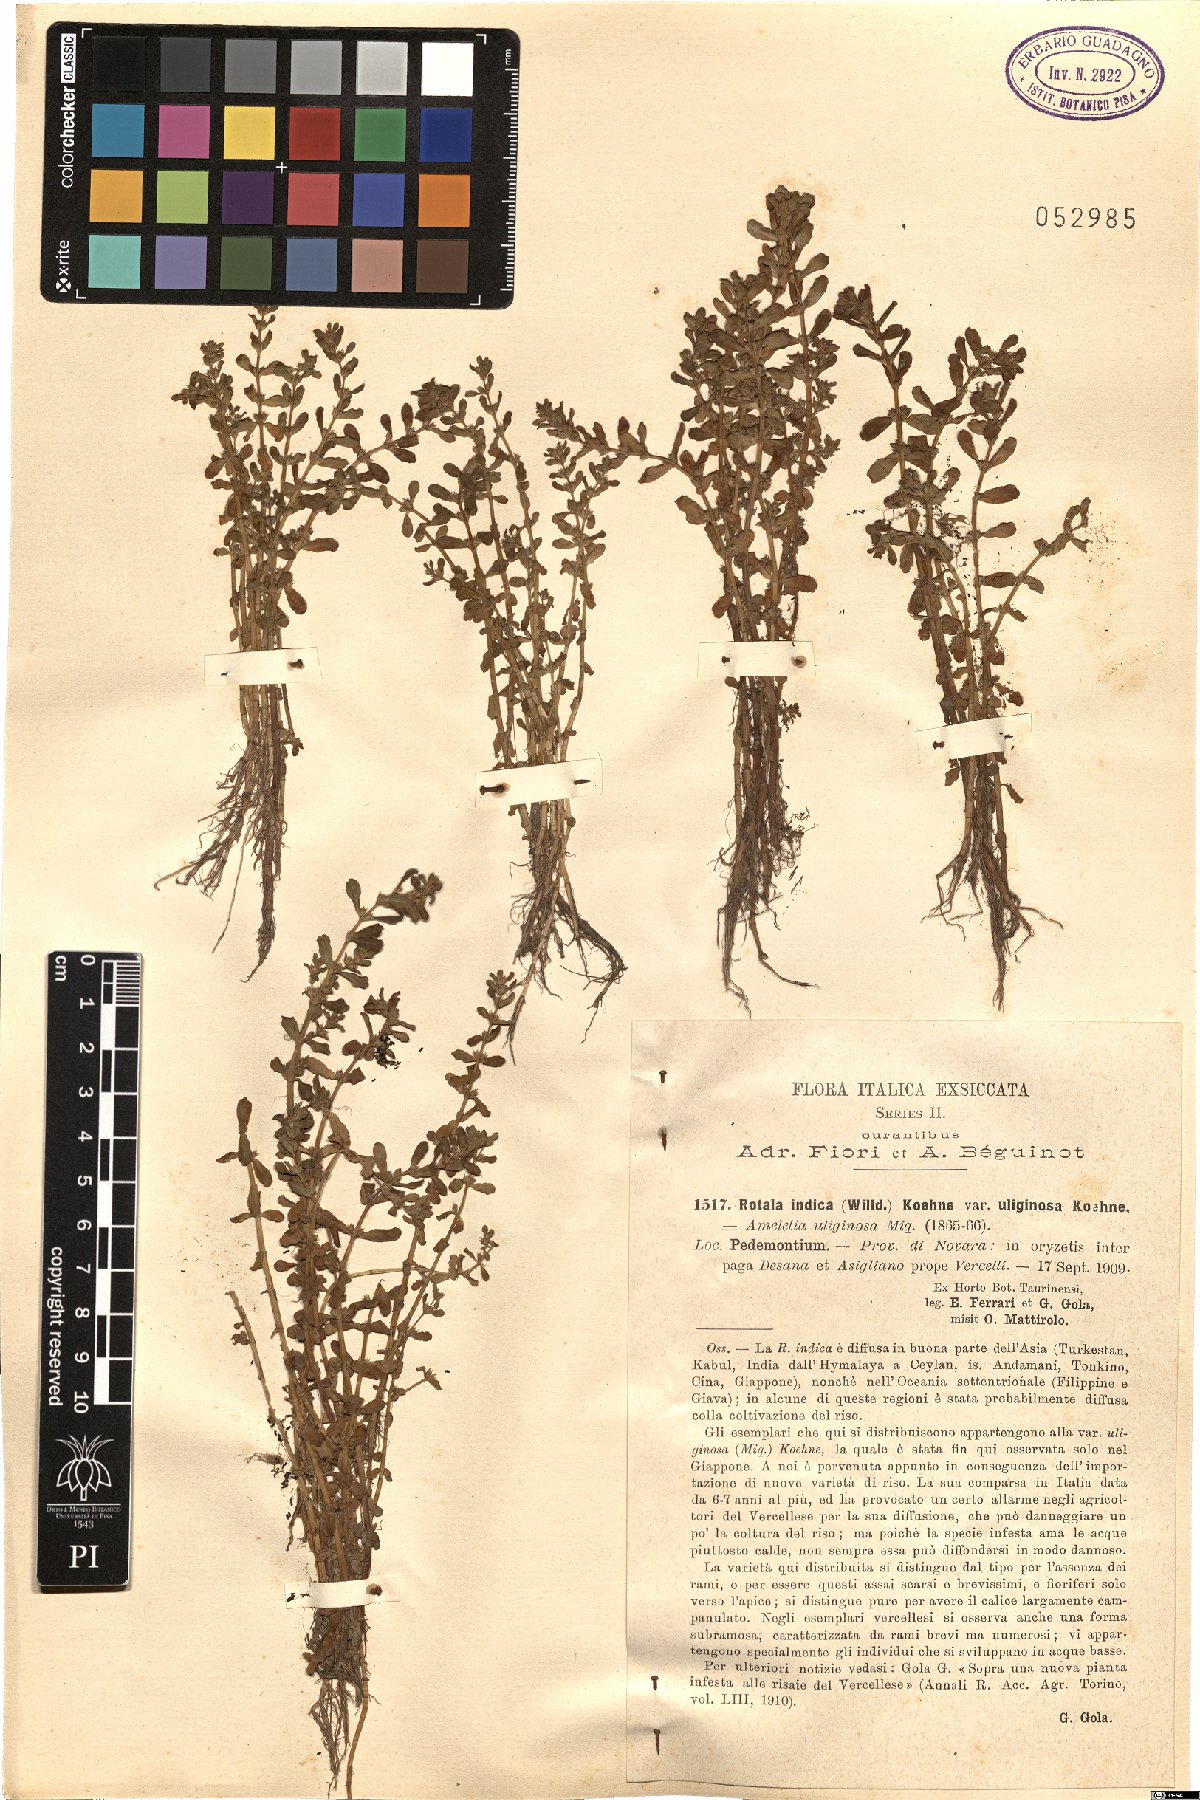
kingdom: Plantae
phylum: Tracheophyta
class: Magnoliopsida
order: Myrtales
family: Lythraceae
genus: Rotala
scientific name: Rotala indica
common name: Indian toothcup
